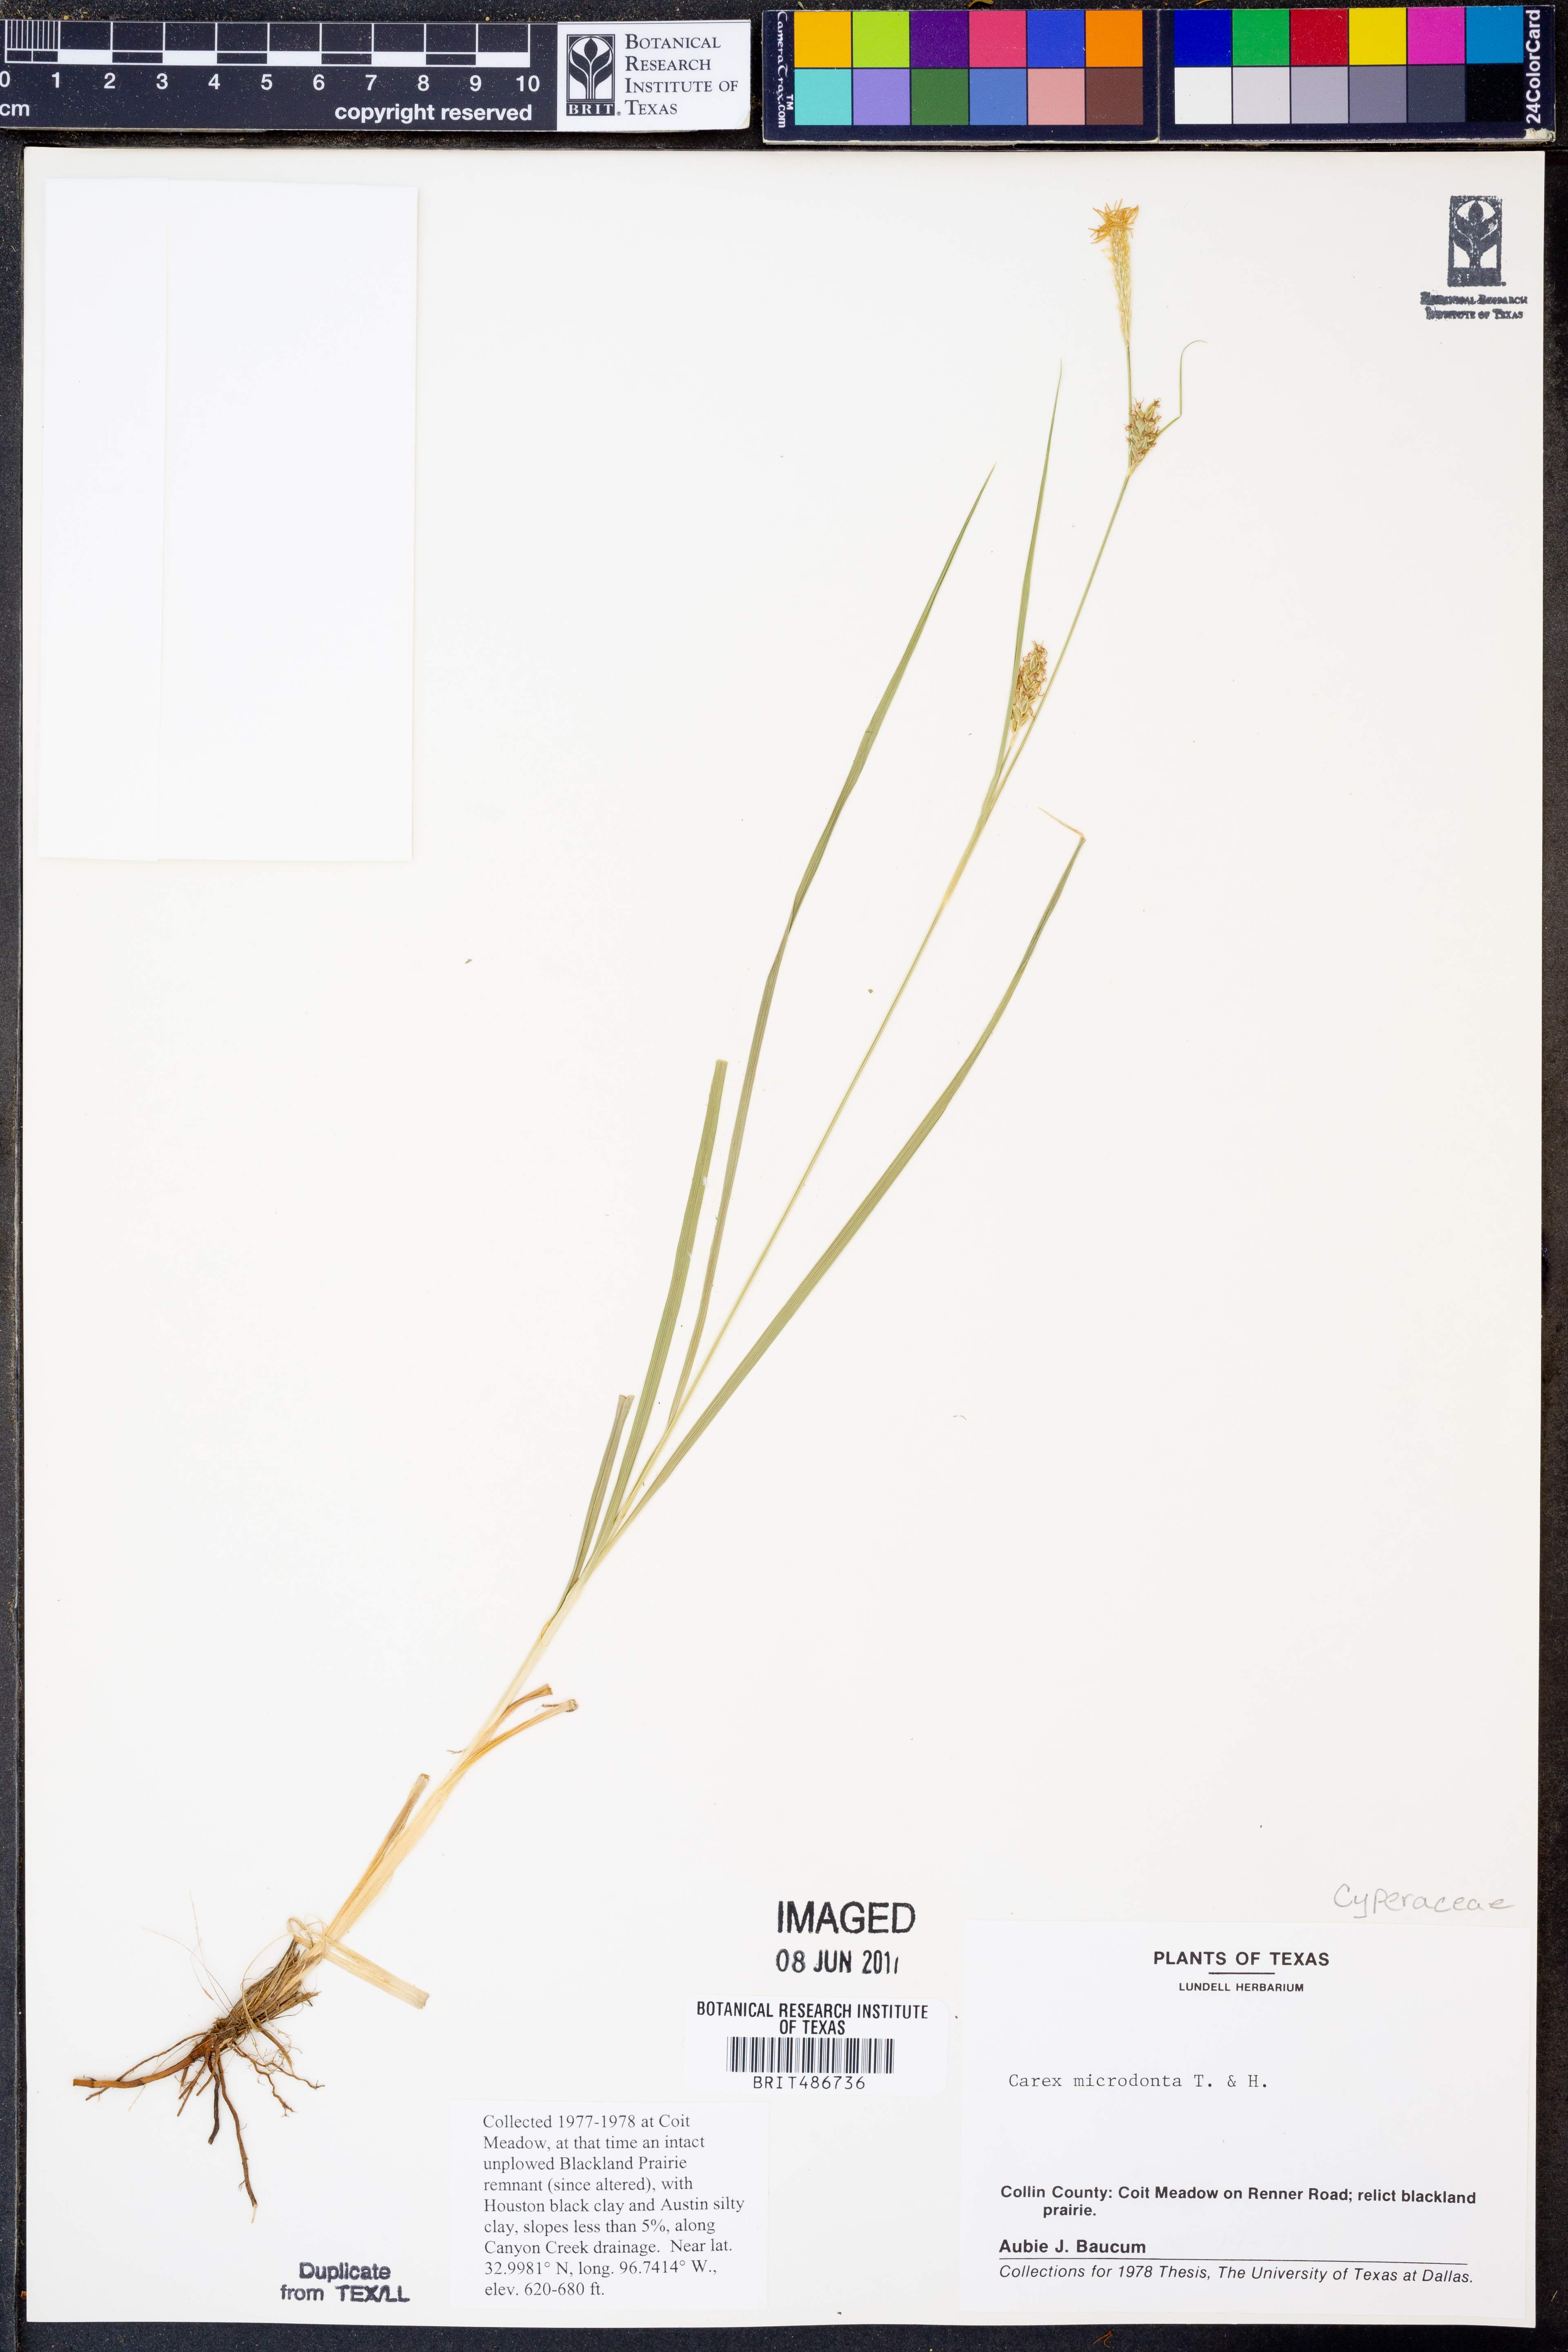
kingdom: Plantae
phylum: Tracheophyta
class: Liliopsida
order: Poales
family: Cyperaceae
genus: Carex
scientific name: Carex microdonta
